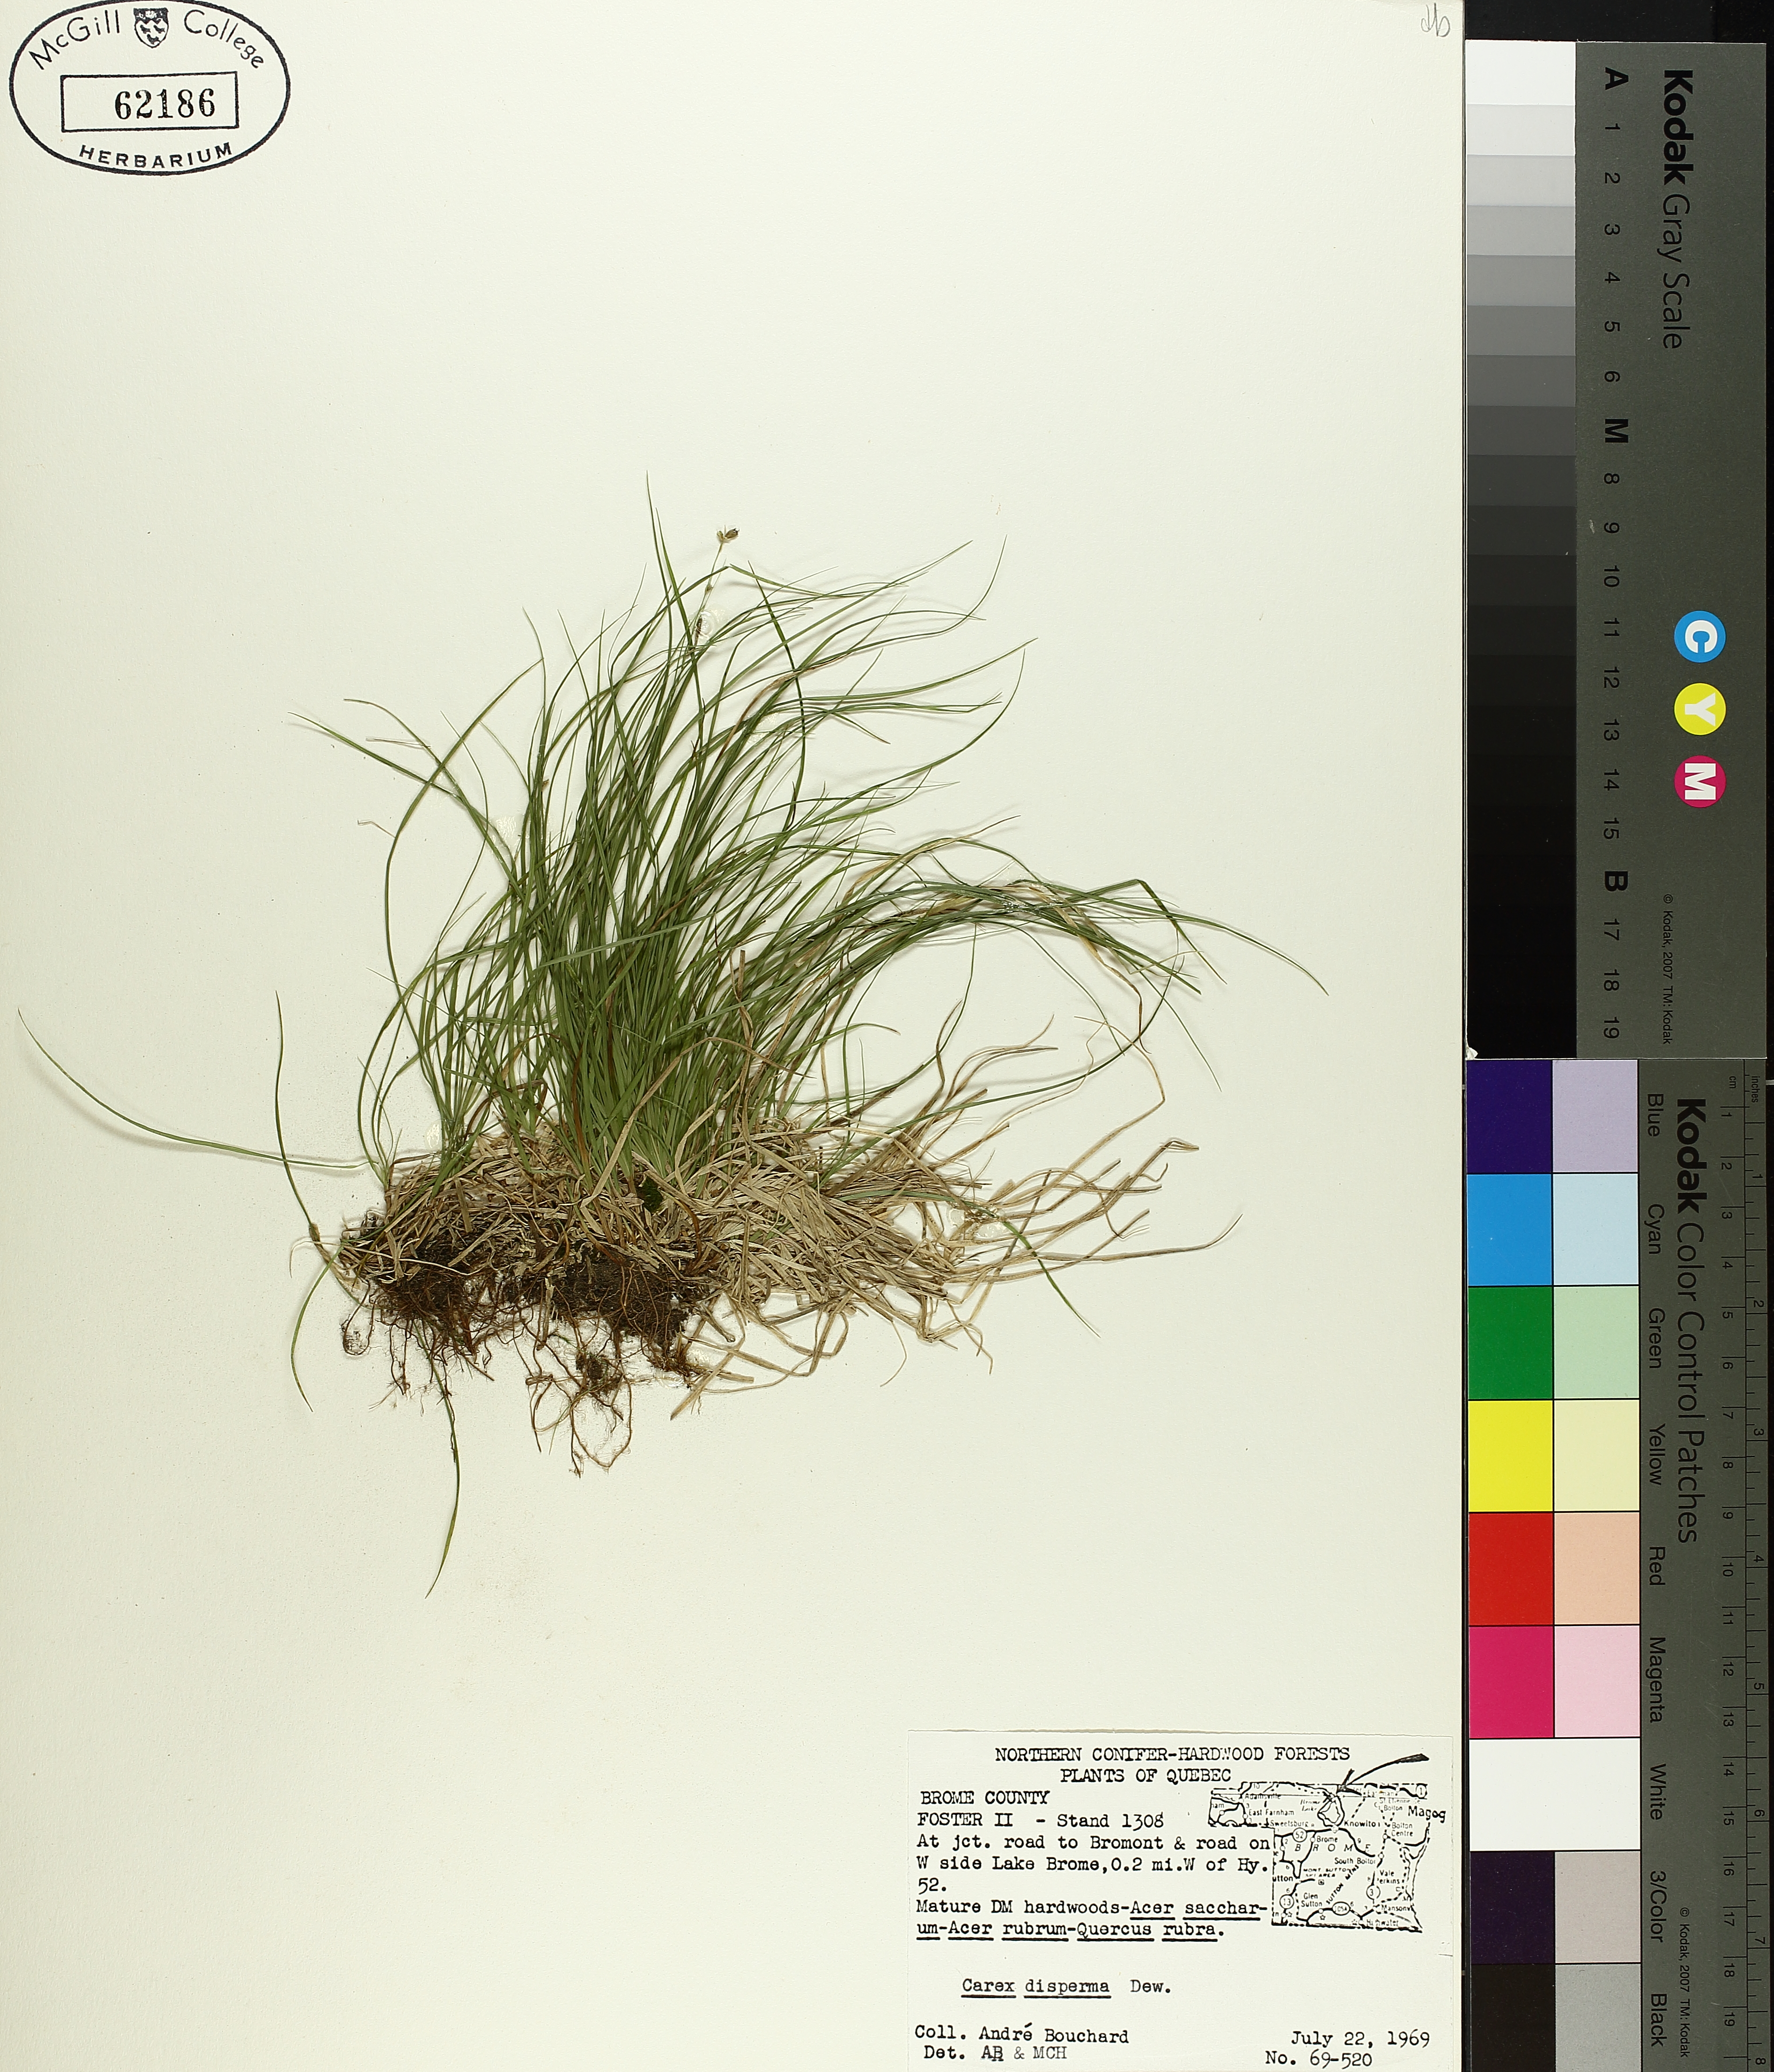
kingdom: Plantae
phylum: Tracheophyta
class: Liliopsida
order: Poales
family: Cyperaceae
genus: Carex
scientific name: Carex disperma
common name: Short-leaved sedge
